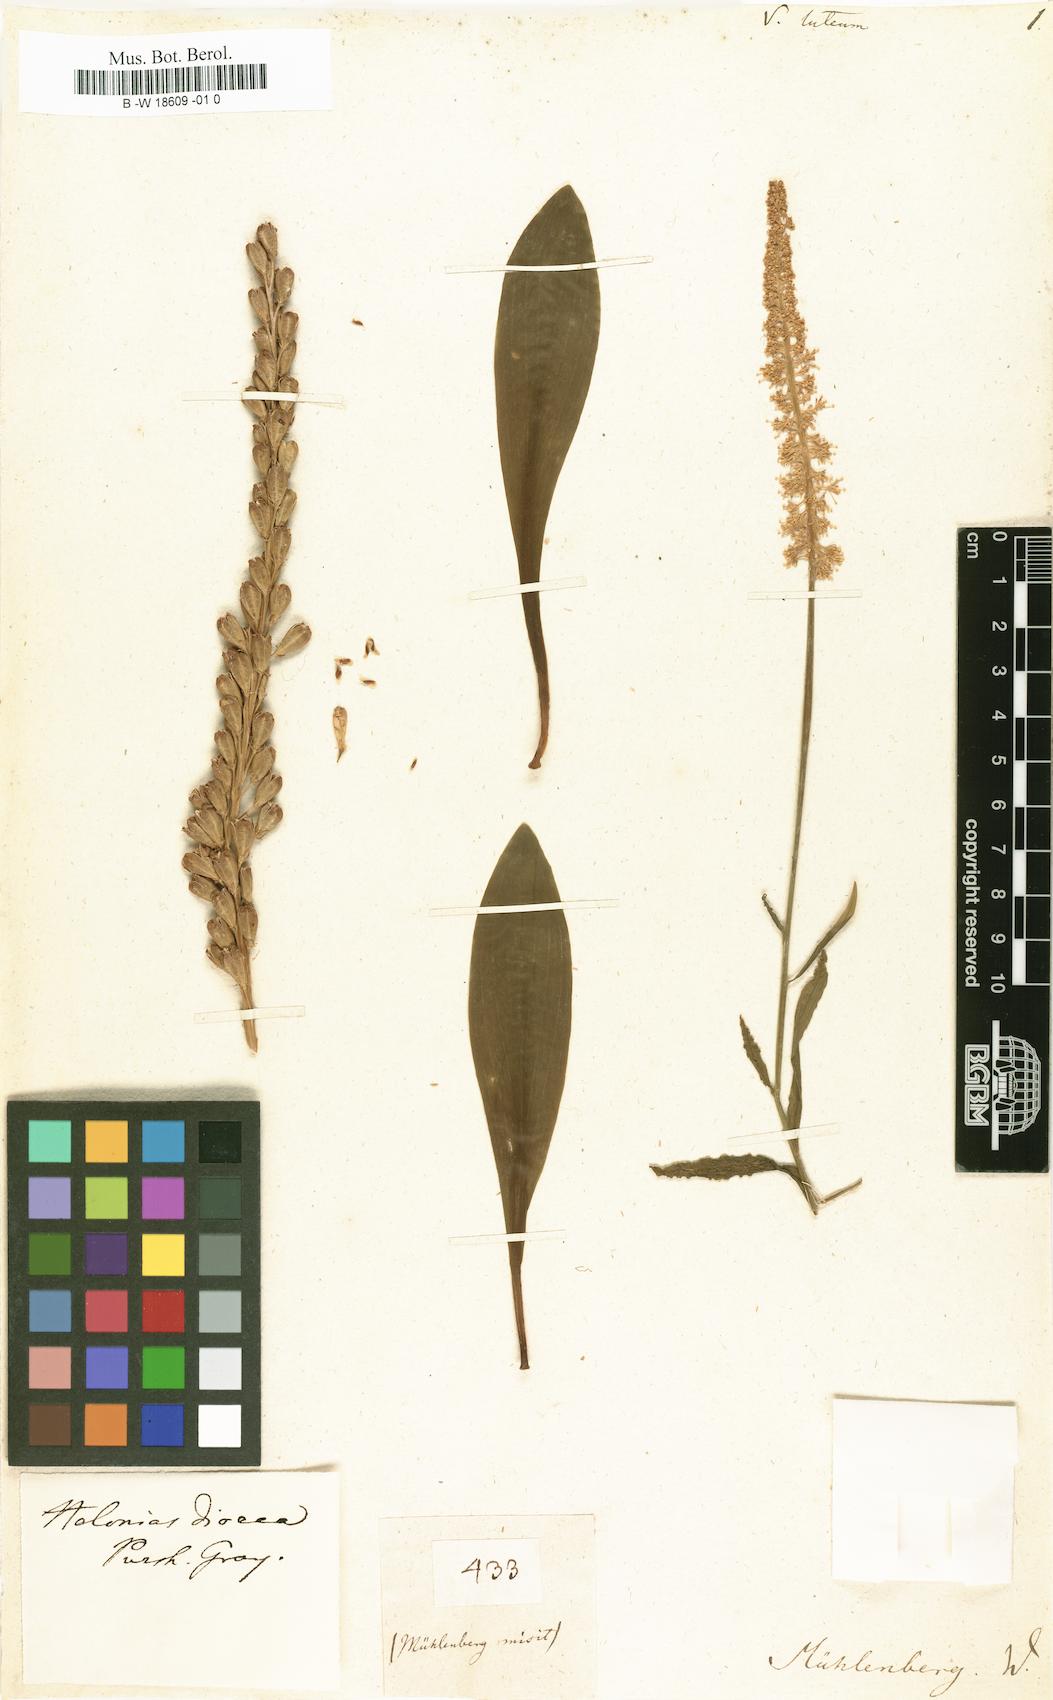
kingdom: Plantae
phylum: Tracheophyta
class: Liliopsida
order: Liliales
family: Melanthiaceae
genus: Chamaelirium
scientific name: Chamaelirium luteum
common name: Fairy-wand
